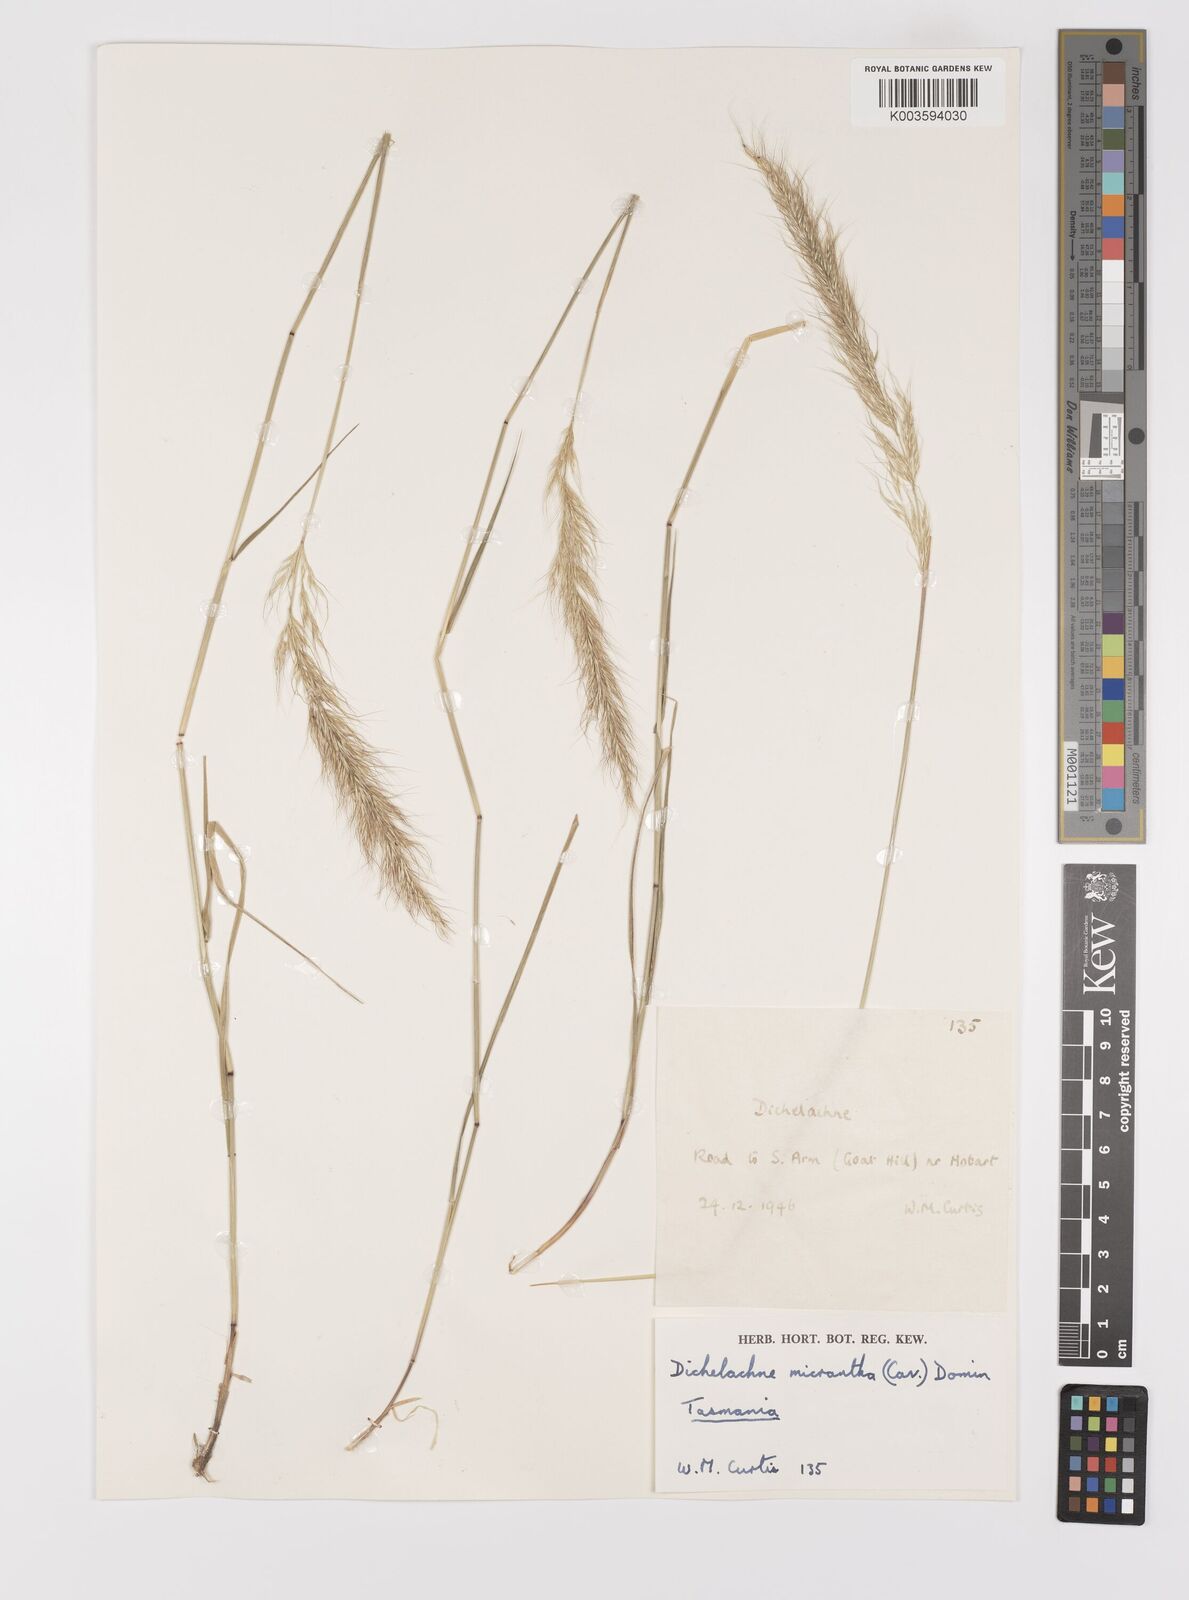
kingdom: Plantae
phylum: Tracheophyta
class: Liliopsida
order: Poales
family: Poaceae
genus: Dichelachne
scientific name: Dichelachne micrantha
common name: Plumegrass
